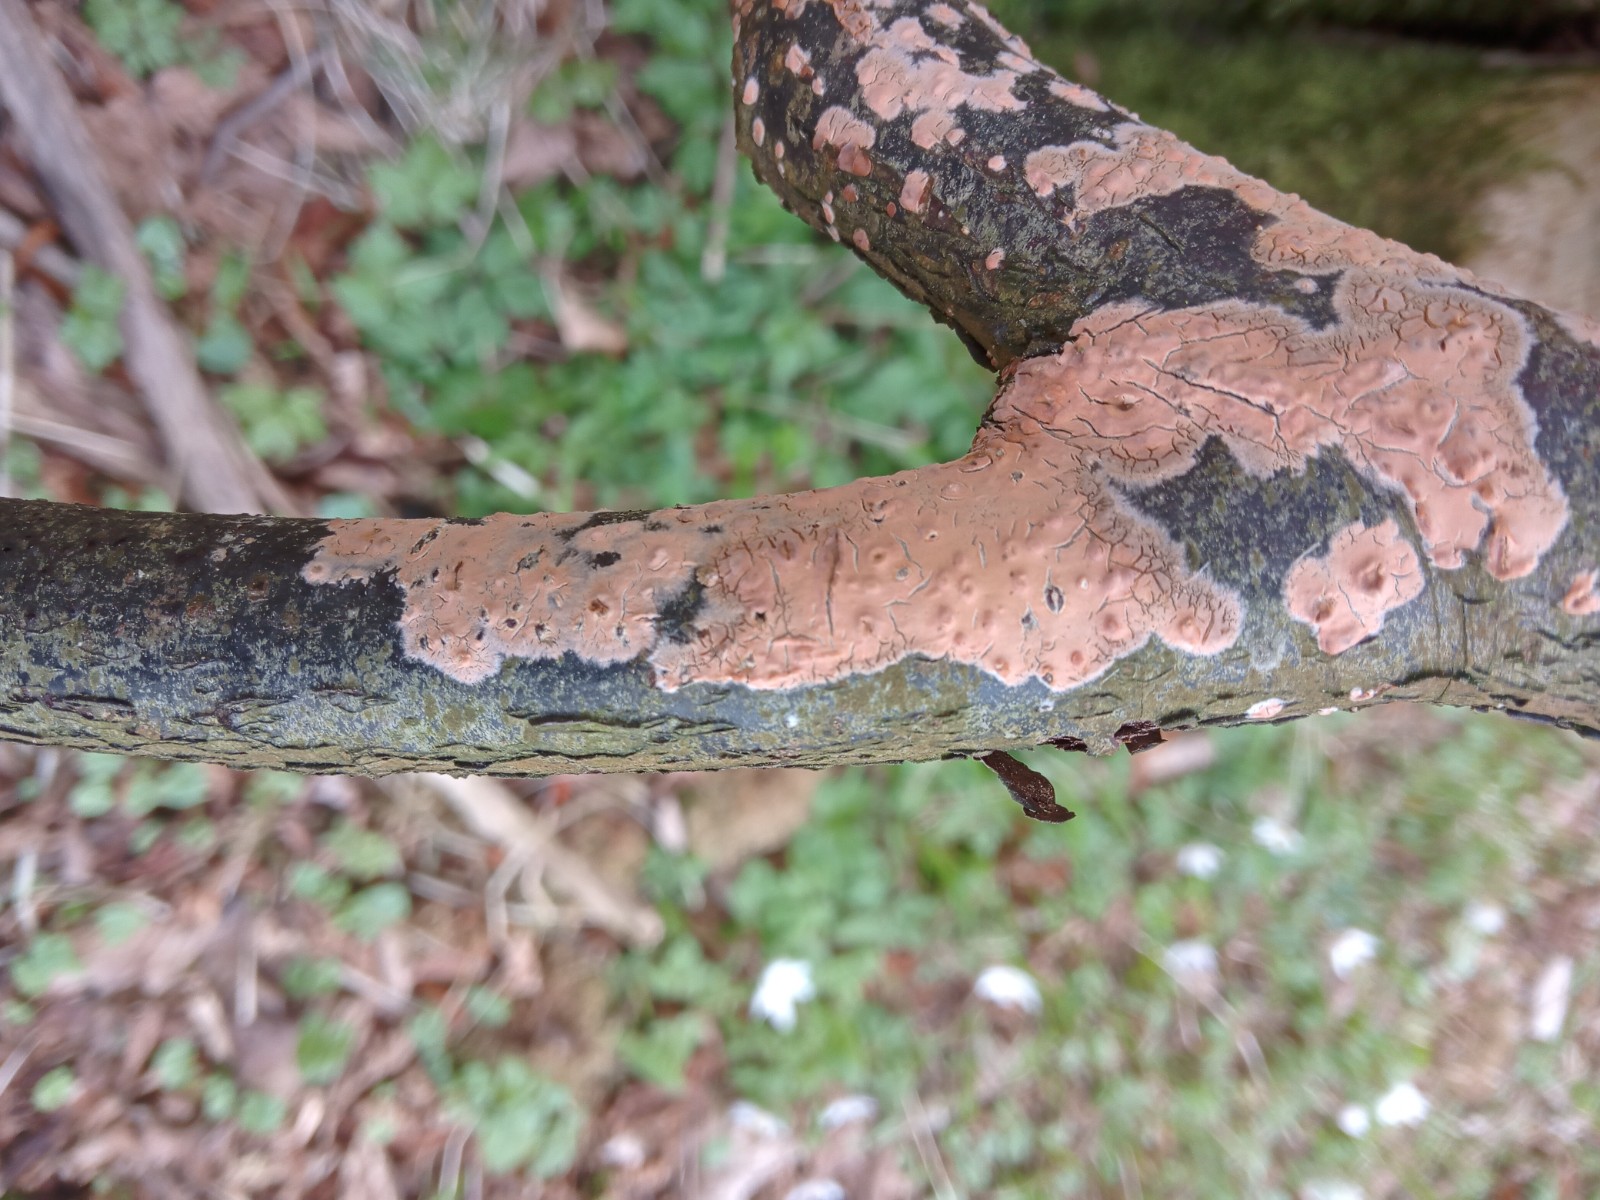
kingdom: Fungi
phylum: Basidiomycota
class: Agaricomycetes
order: Russulales
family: Peniophoraceae
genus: Peniophora
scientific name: Peniophora incarnata
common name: laksefarvet voksskind
